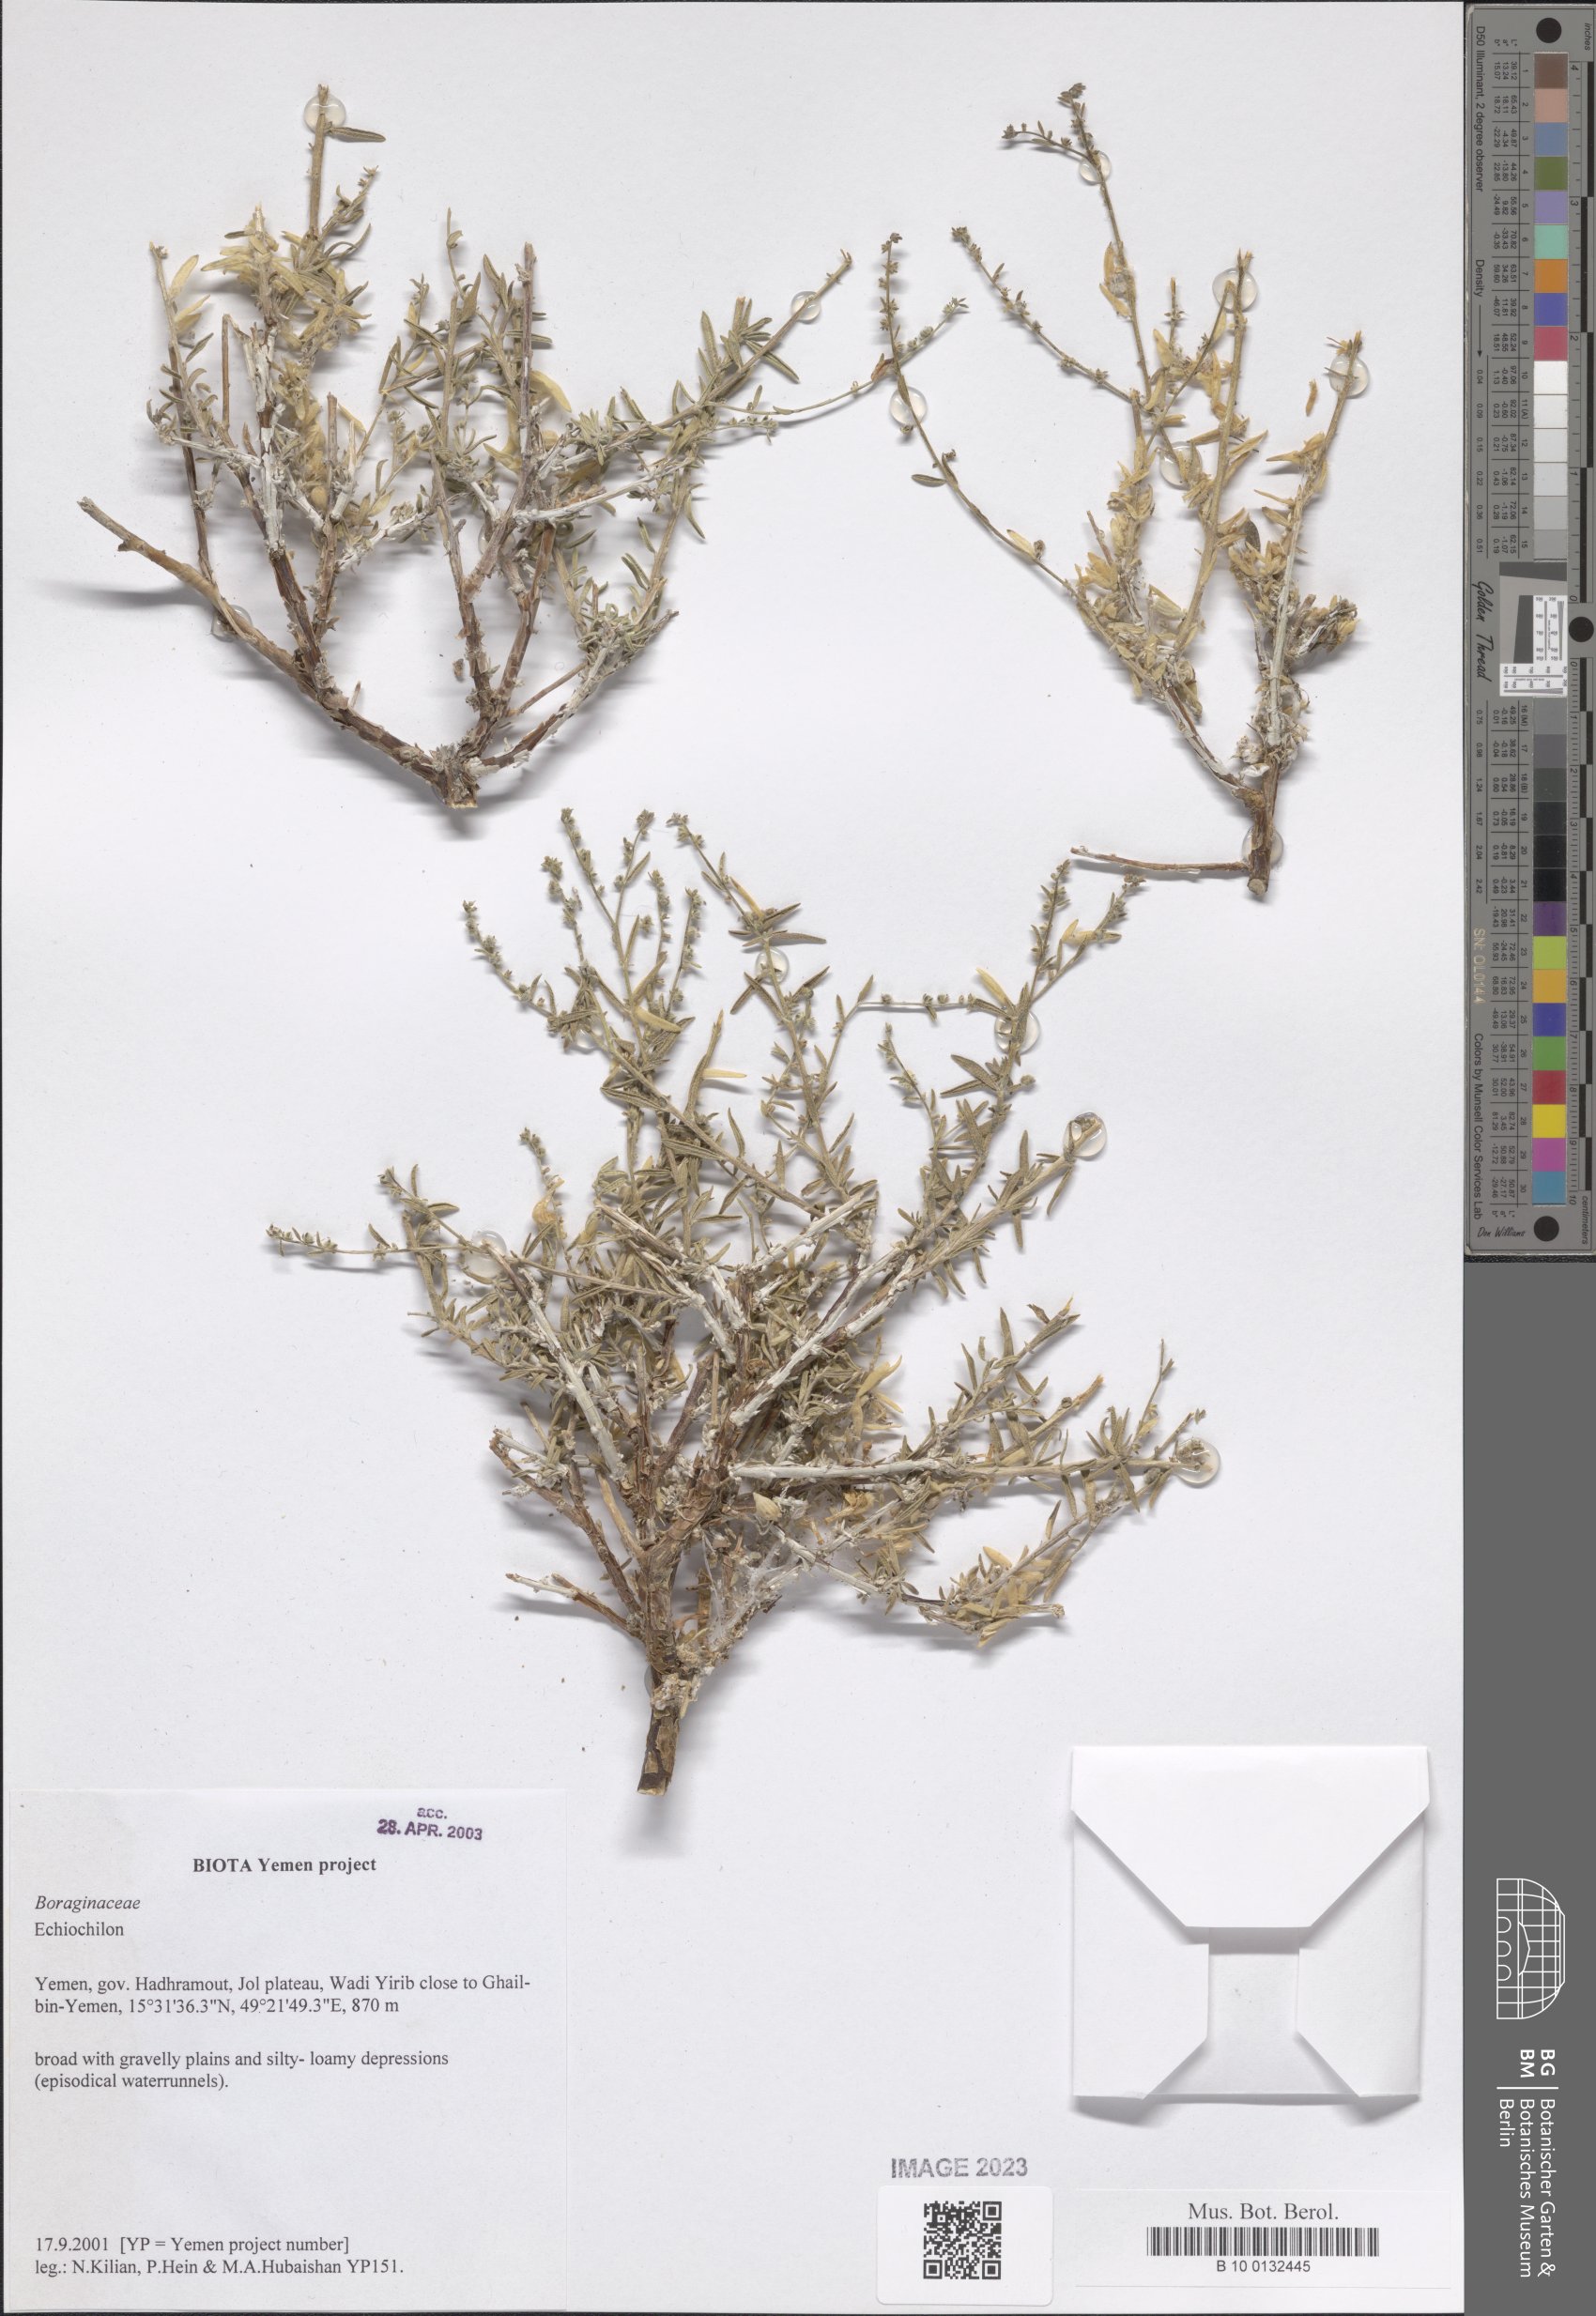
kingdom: Plantae
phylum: Tracheophyta
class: Magnoliopsida
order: Boraginales
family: Boraginaceae
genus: Echiochilon
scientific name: Echiochilon
